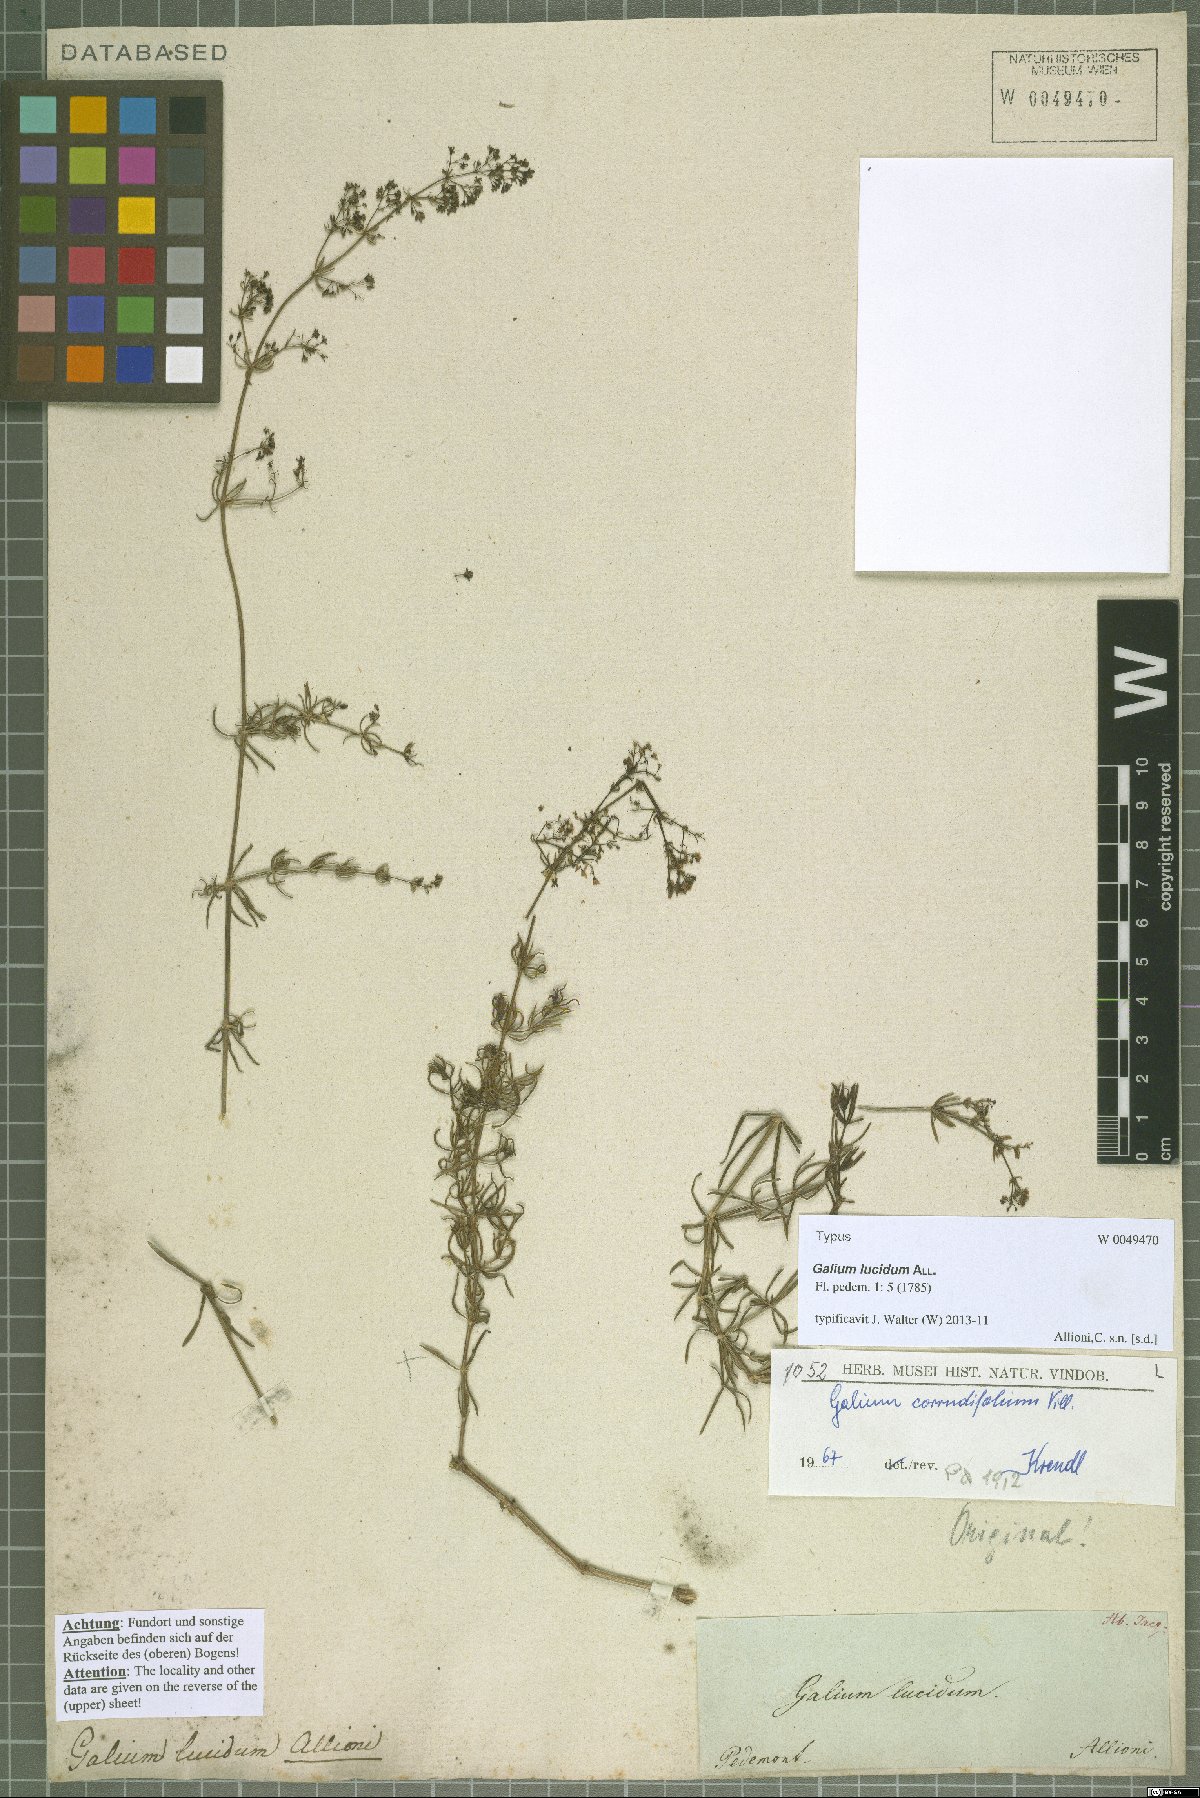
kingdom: Plantae
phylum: Tracheophyta
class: Magnoliopsida
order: Gentianales
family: Rubiaceae
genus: Galium
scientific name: Galium lucidum
